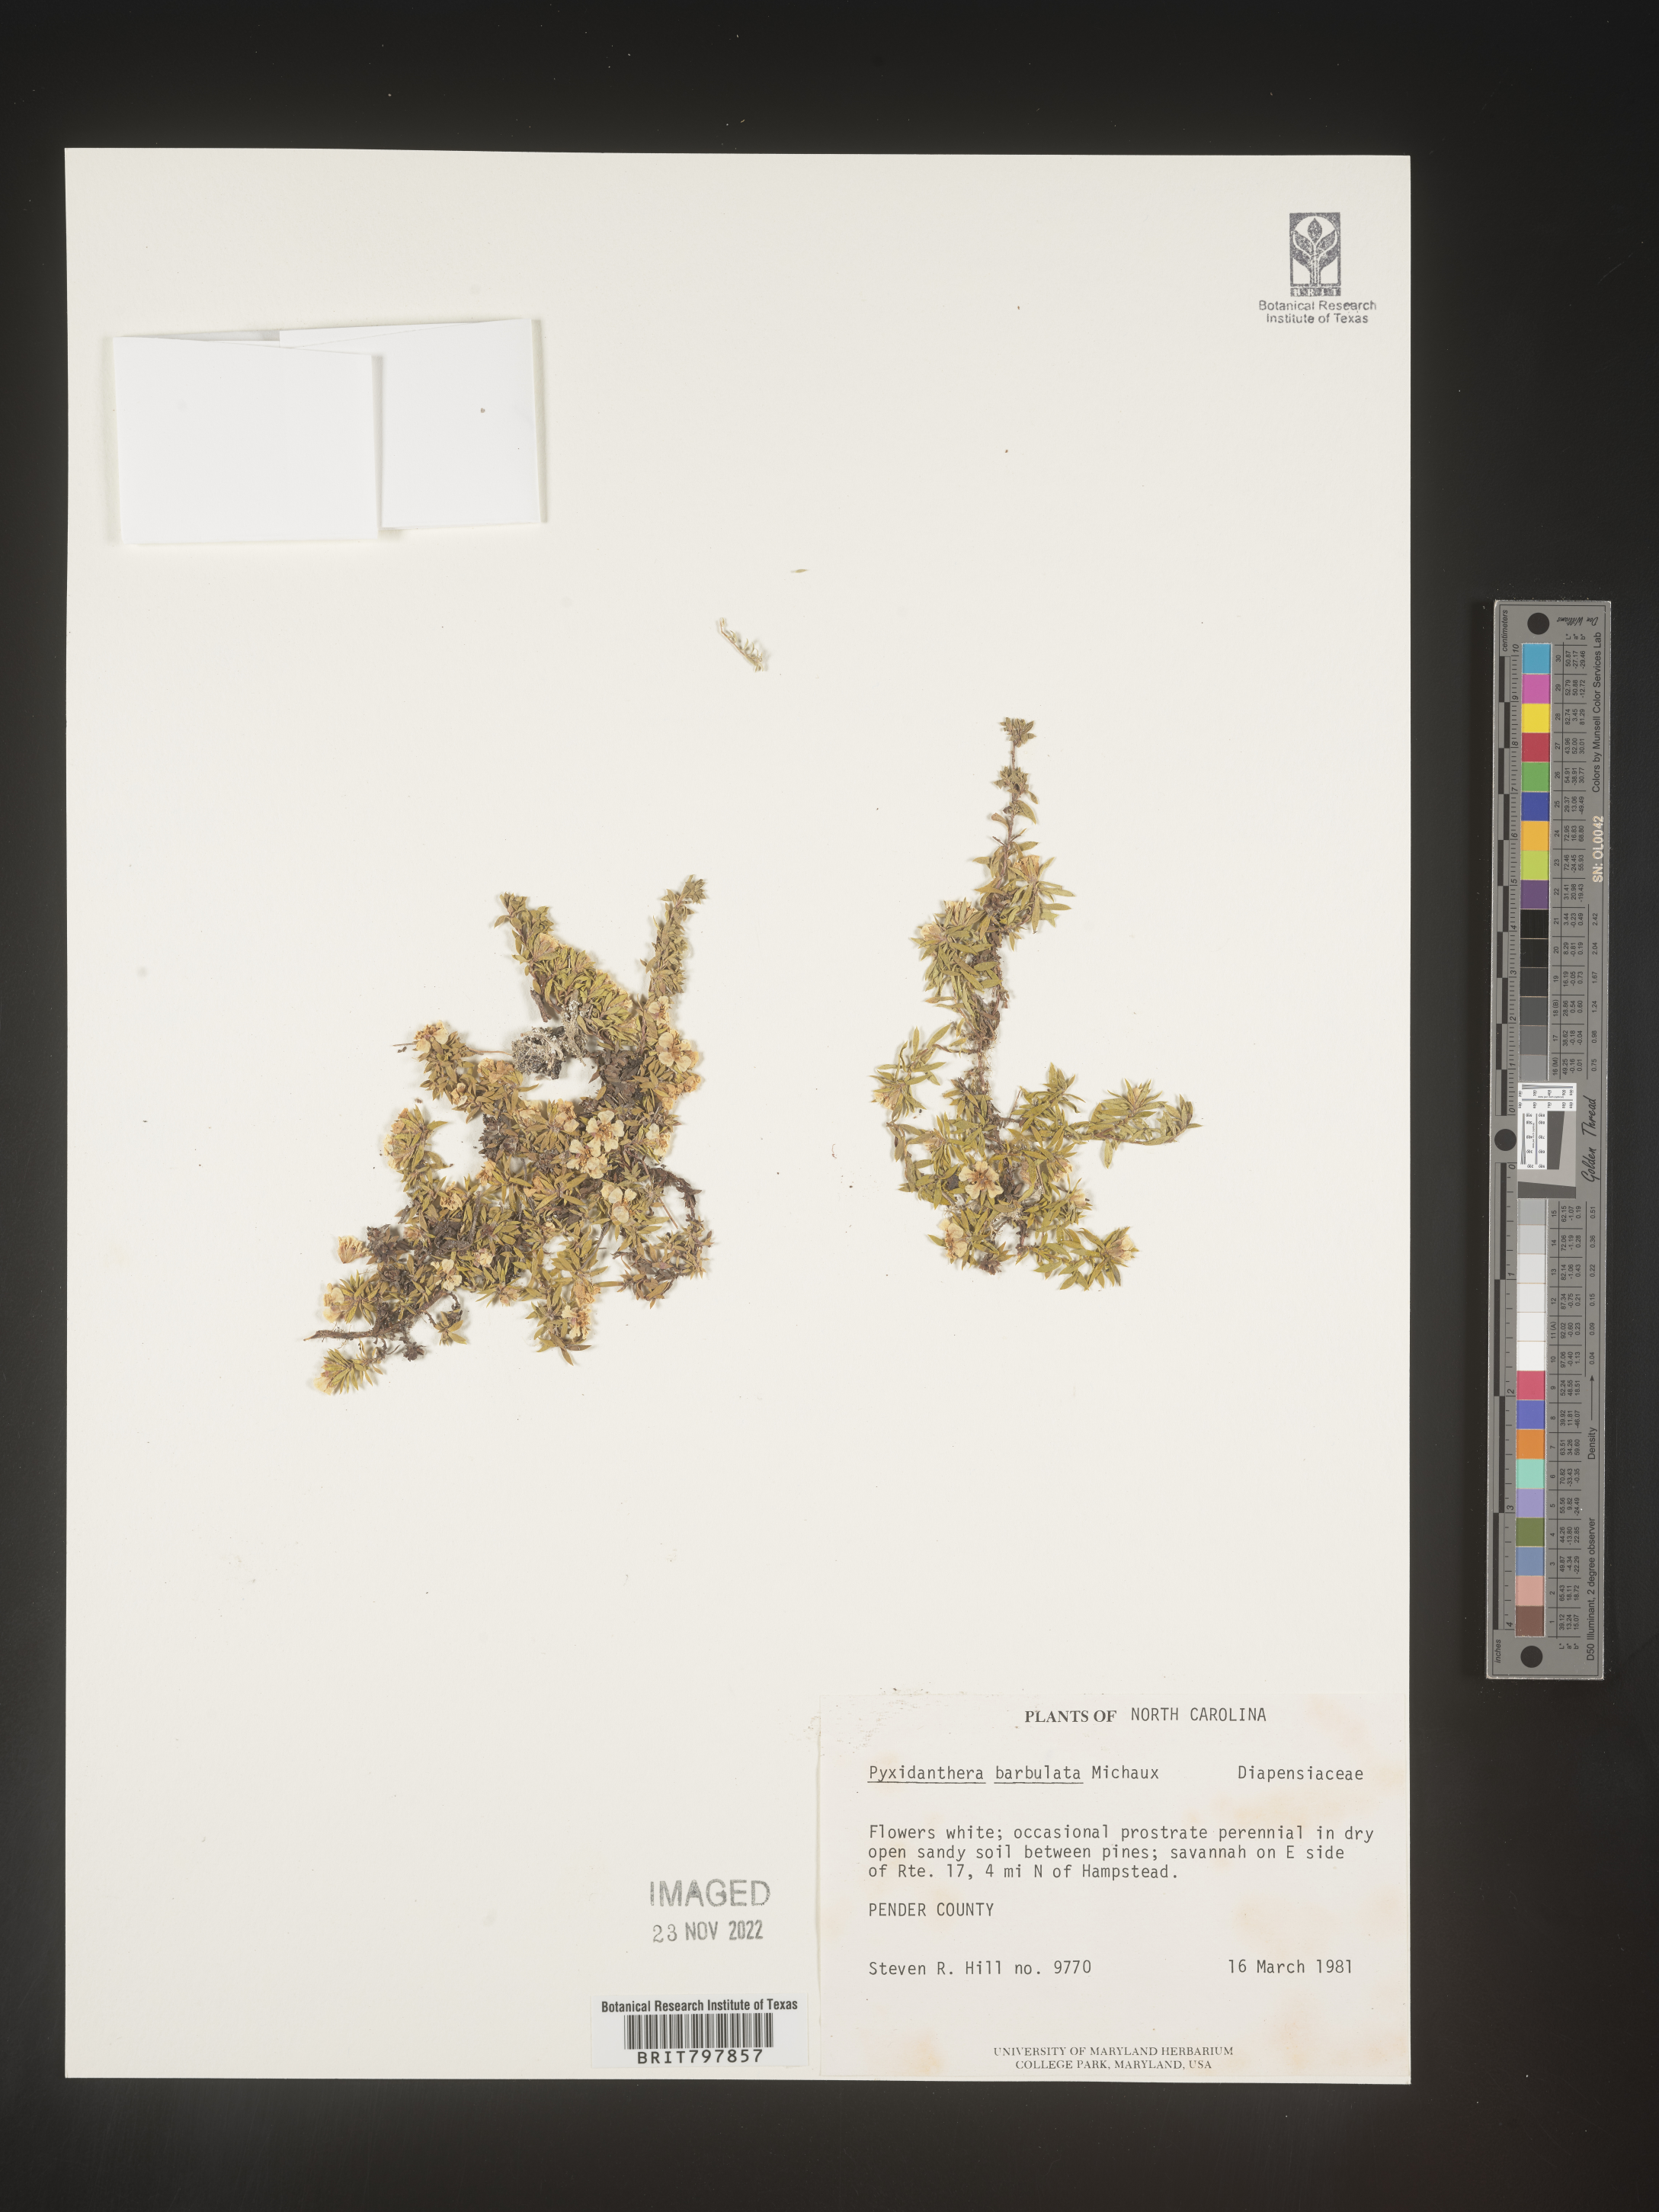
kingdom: Plantae
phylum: Tracheophyta
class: Magnoliopsida
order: Ericales
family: Diapensiaceae
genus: Pyxidanthera
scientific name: Pyxidanthera barbulata
